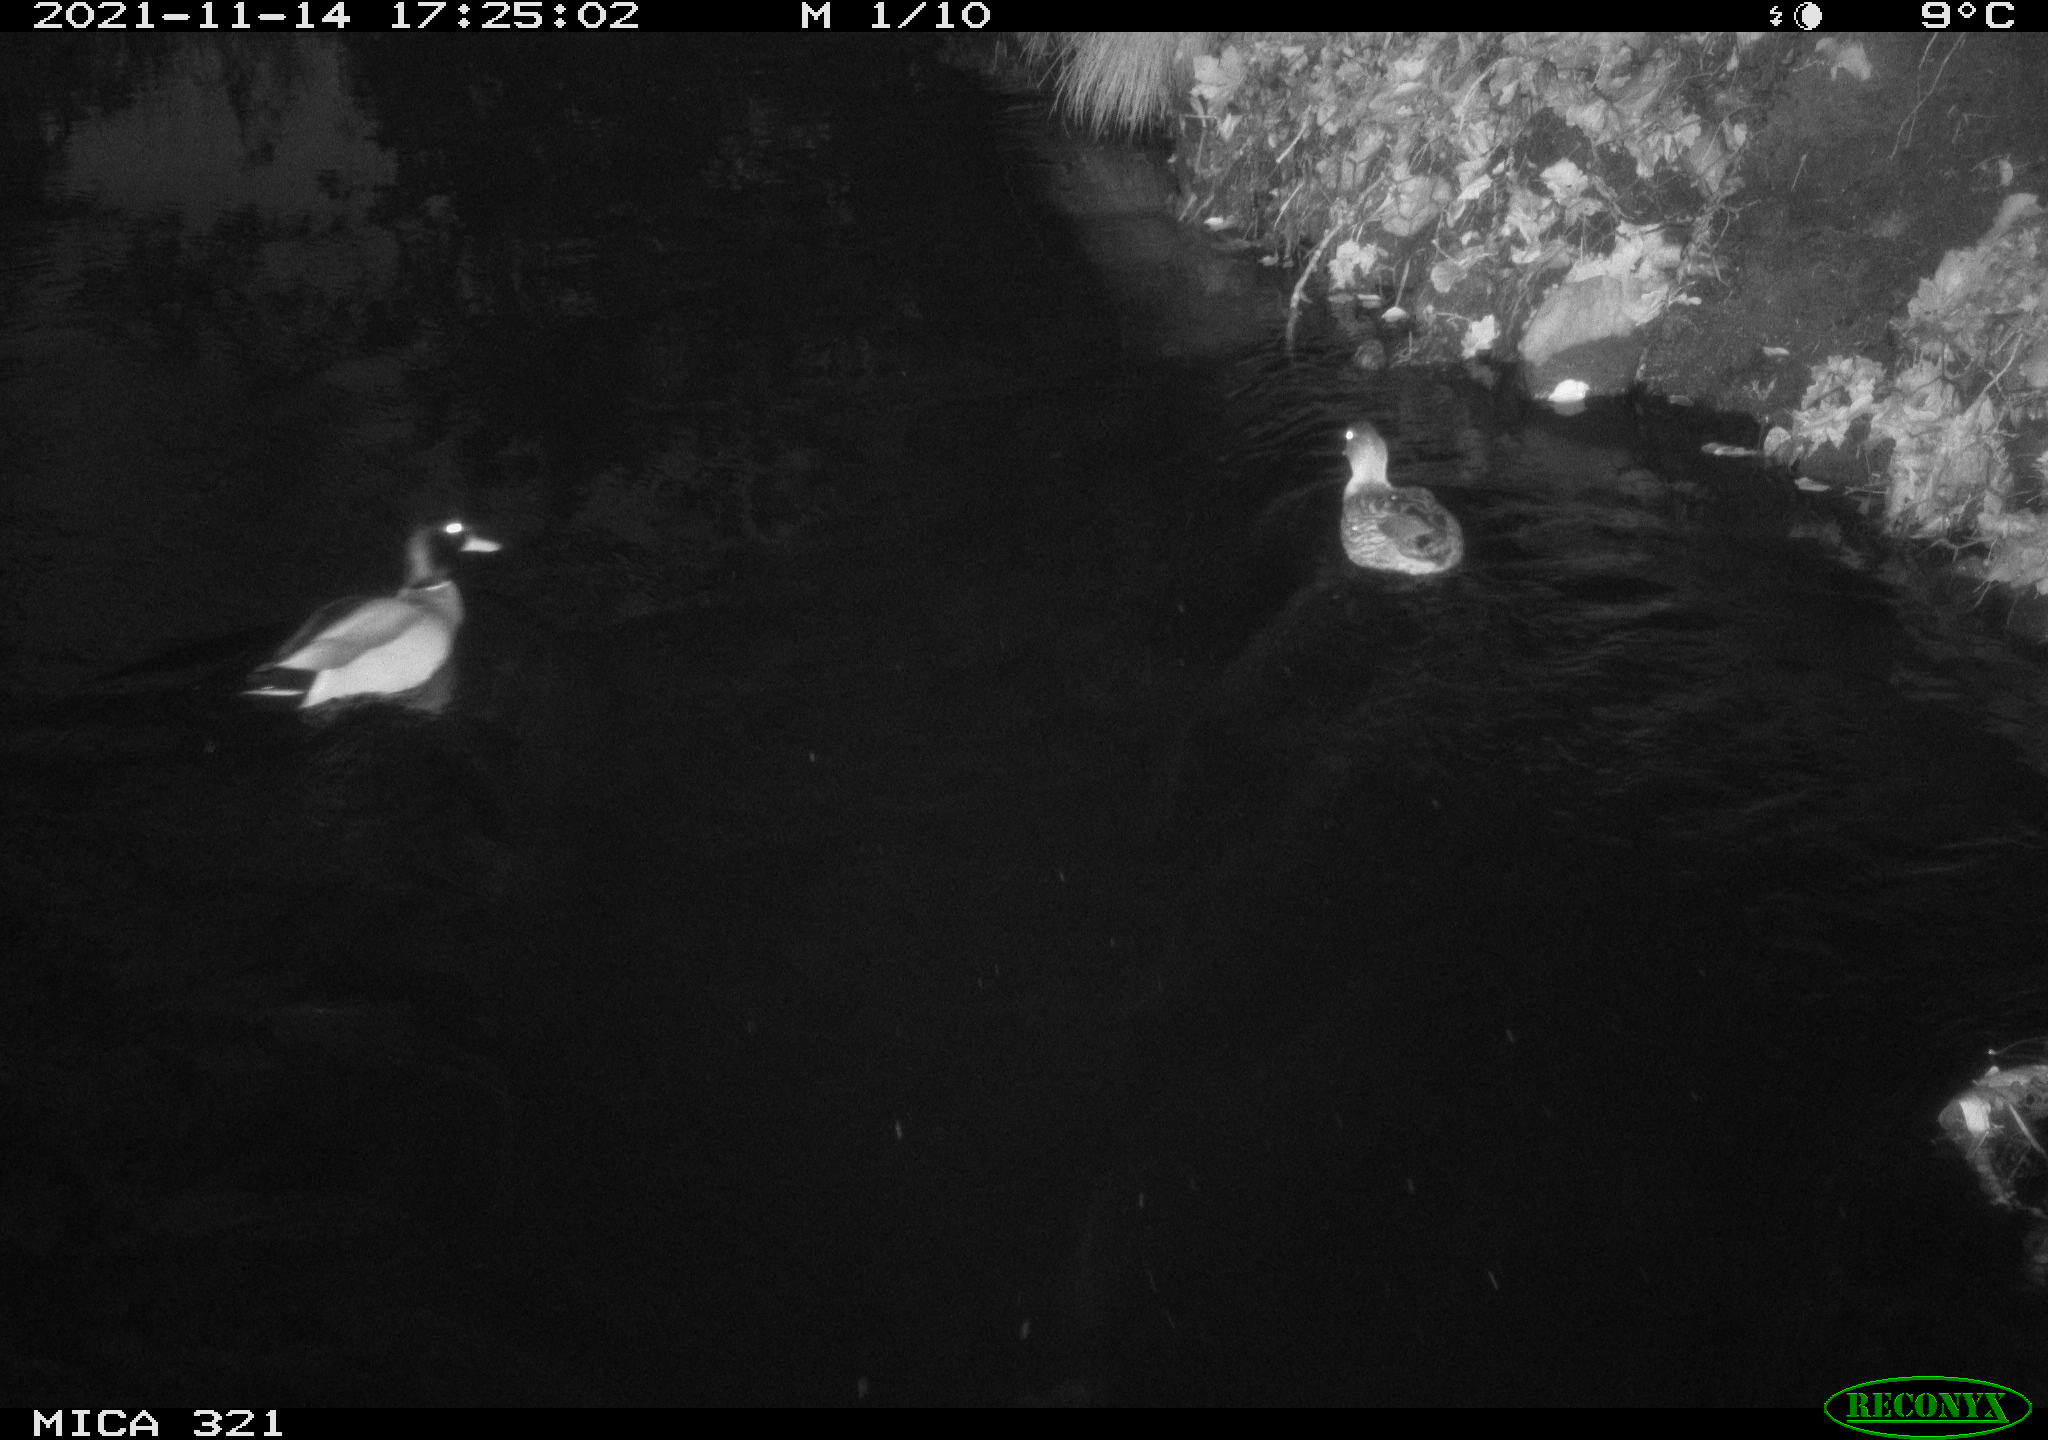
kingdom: Animalia
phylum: Chordata
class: Aves
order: Anseriformes
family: Anatidae
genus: Anas
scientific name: Anas platyrhynchos
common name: Mallard
